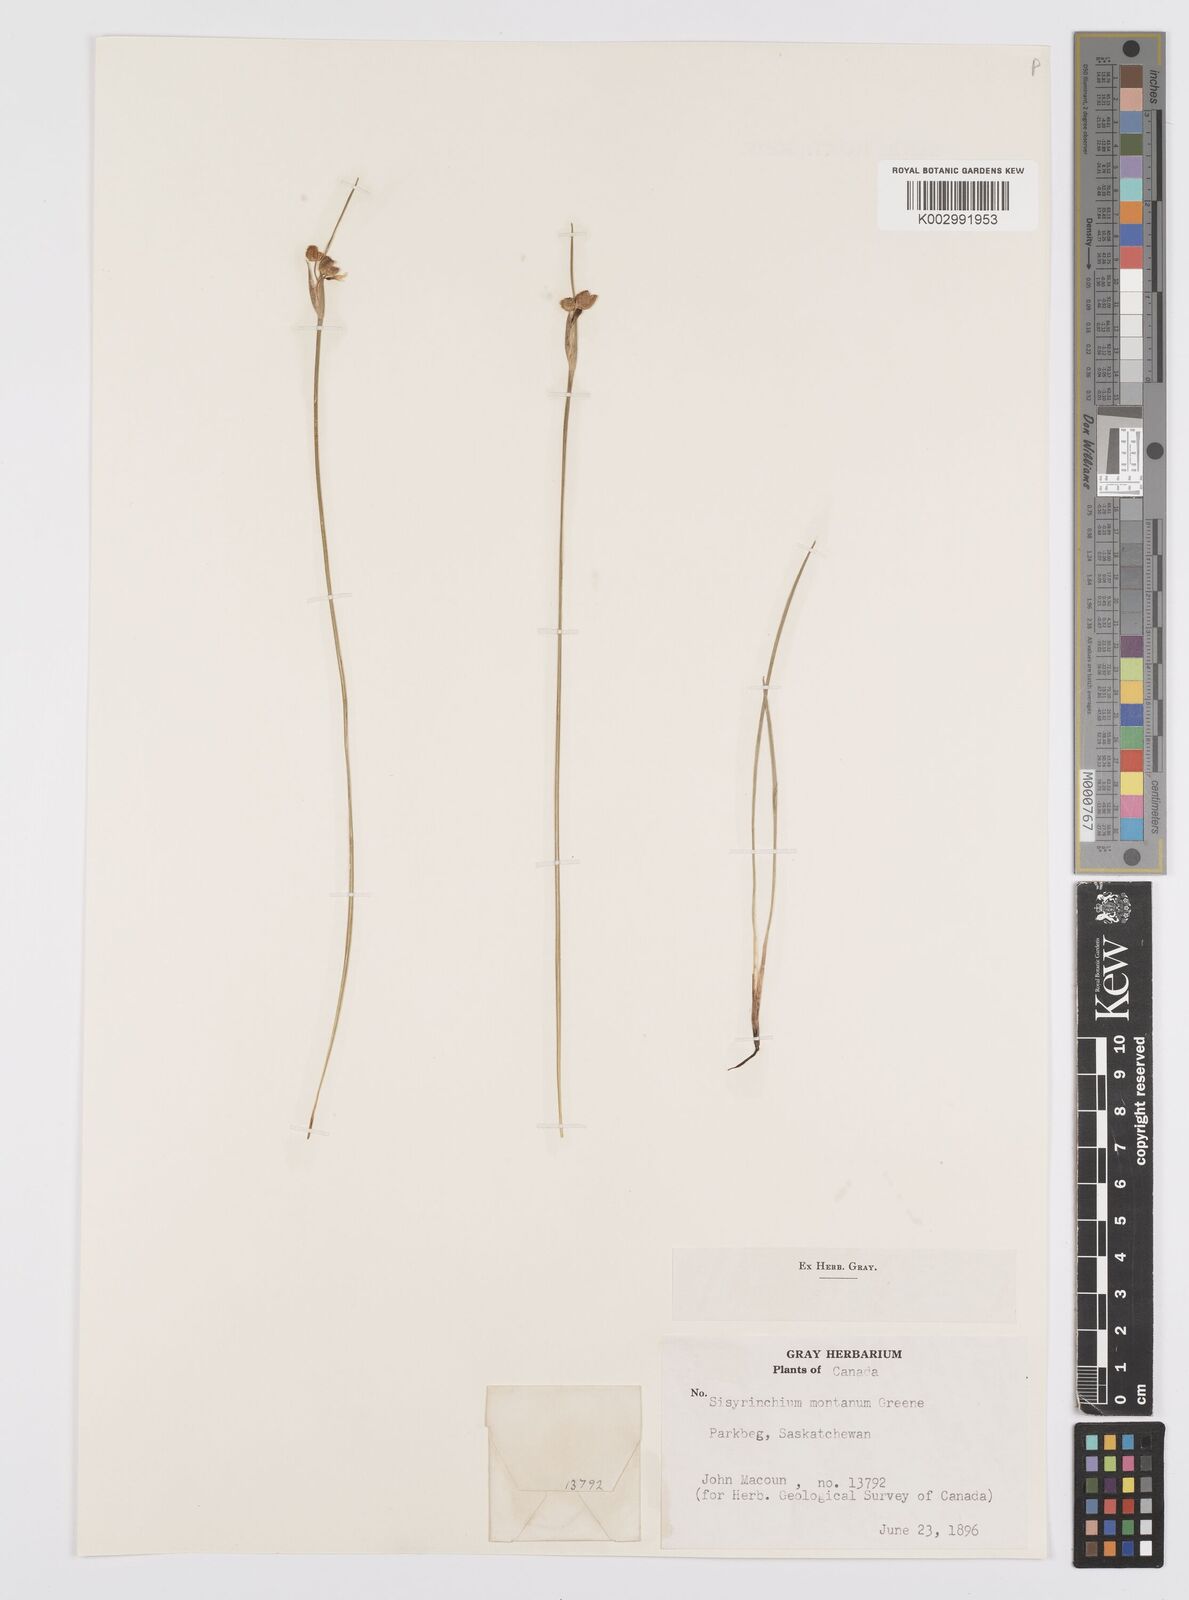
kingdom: Plantae
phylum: Tracheophyta
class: Liliopsida
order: Asparagales
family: Iridaceae
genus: Sisyrinchium
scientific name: Sisyrinchium montanum
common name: American blue-eyed-grass
